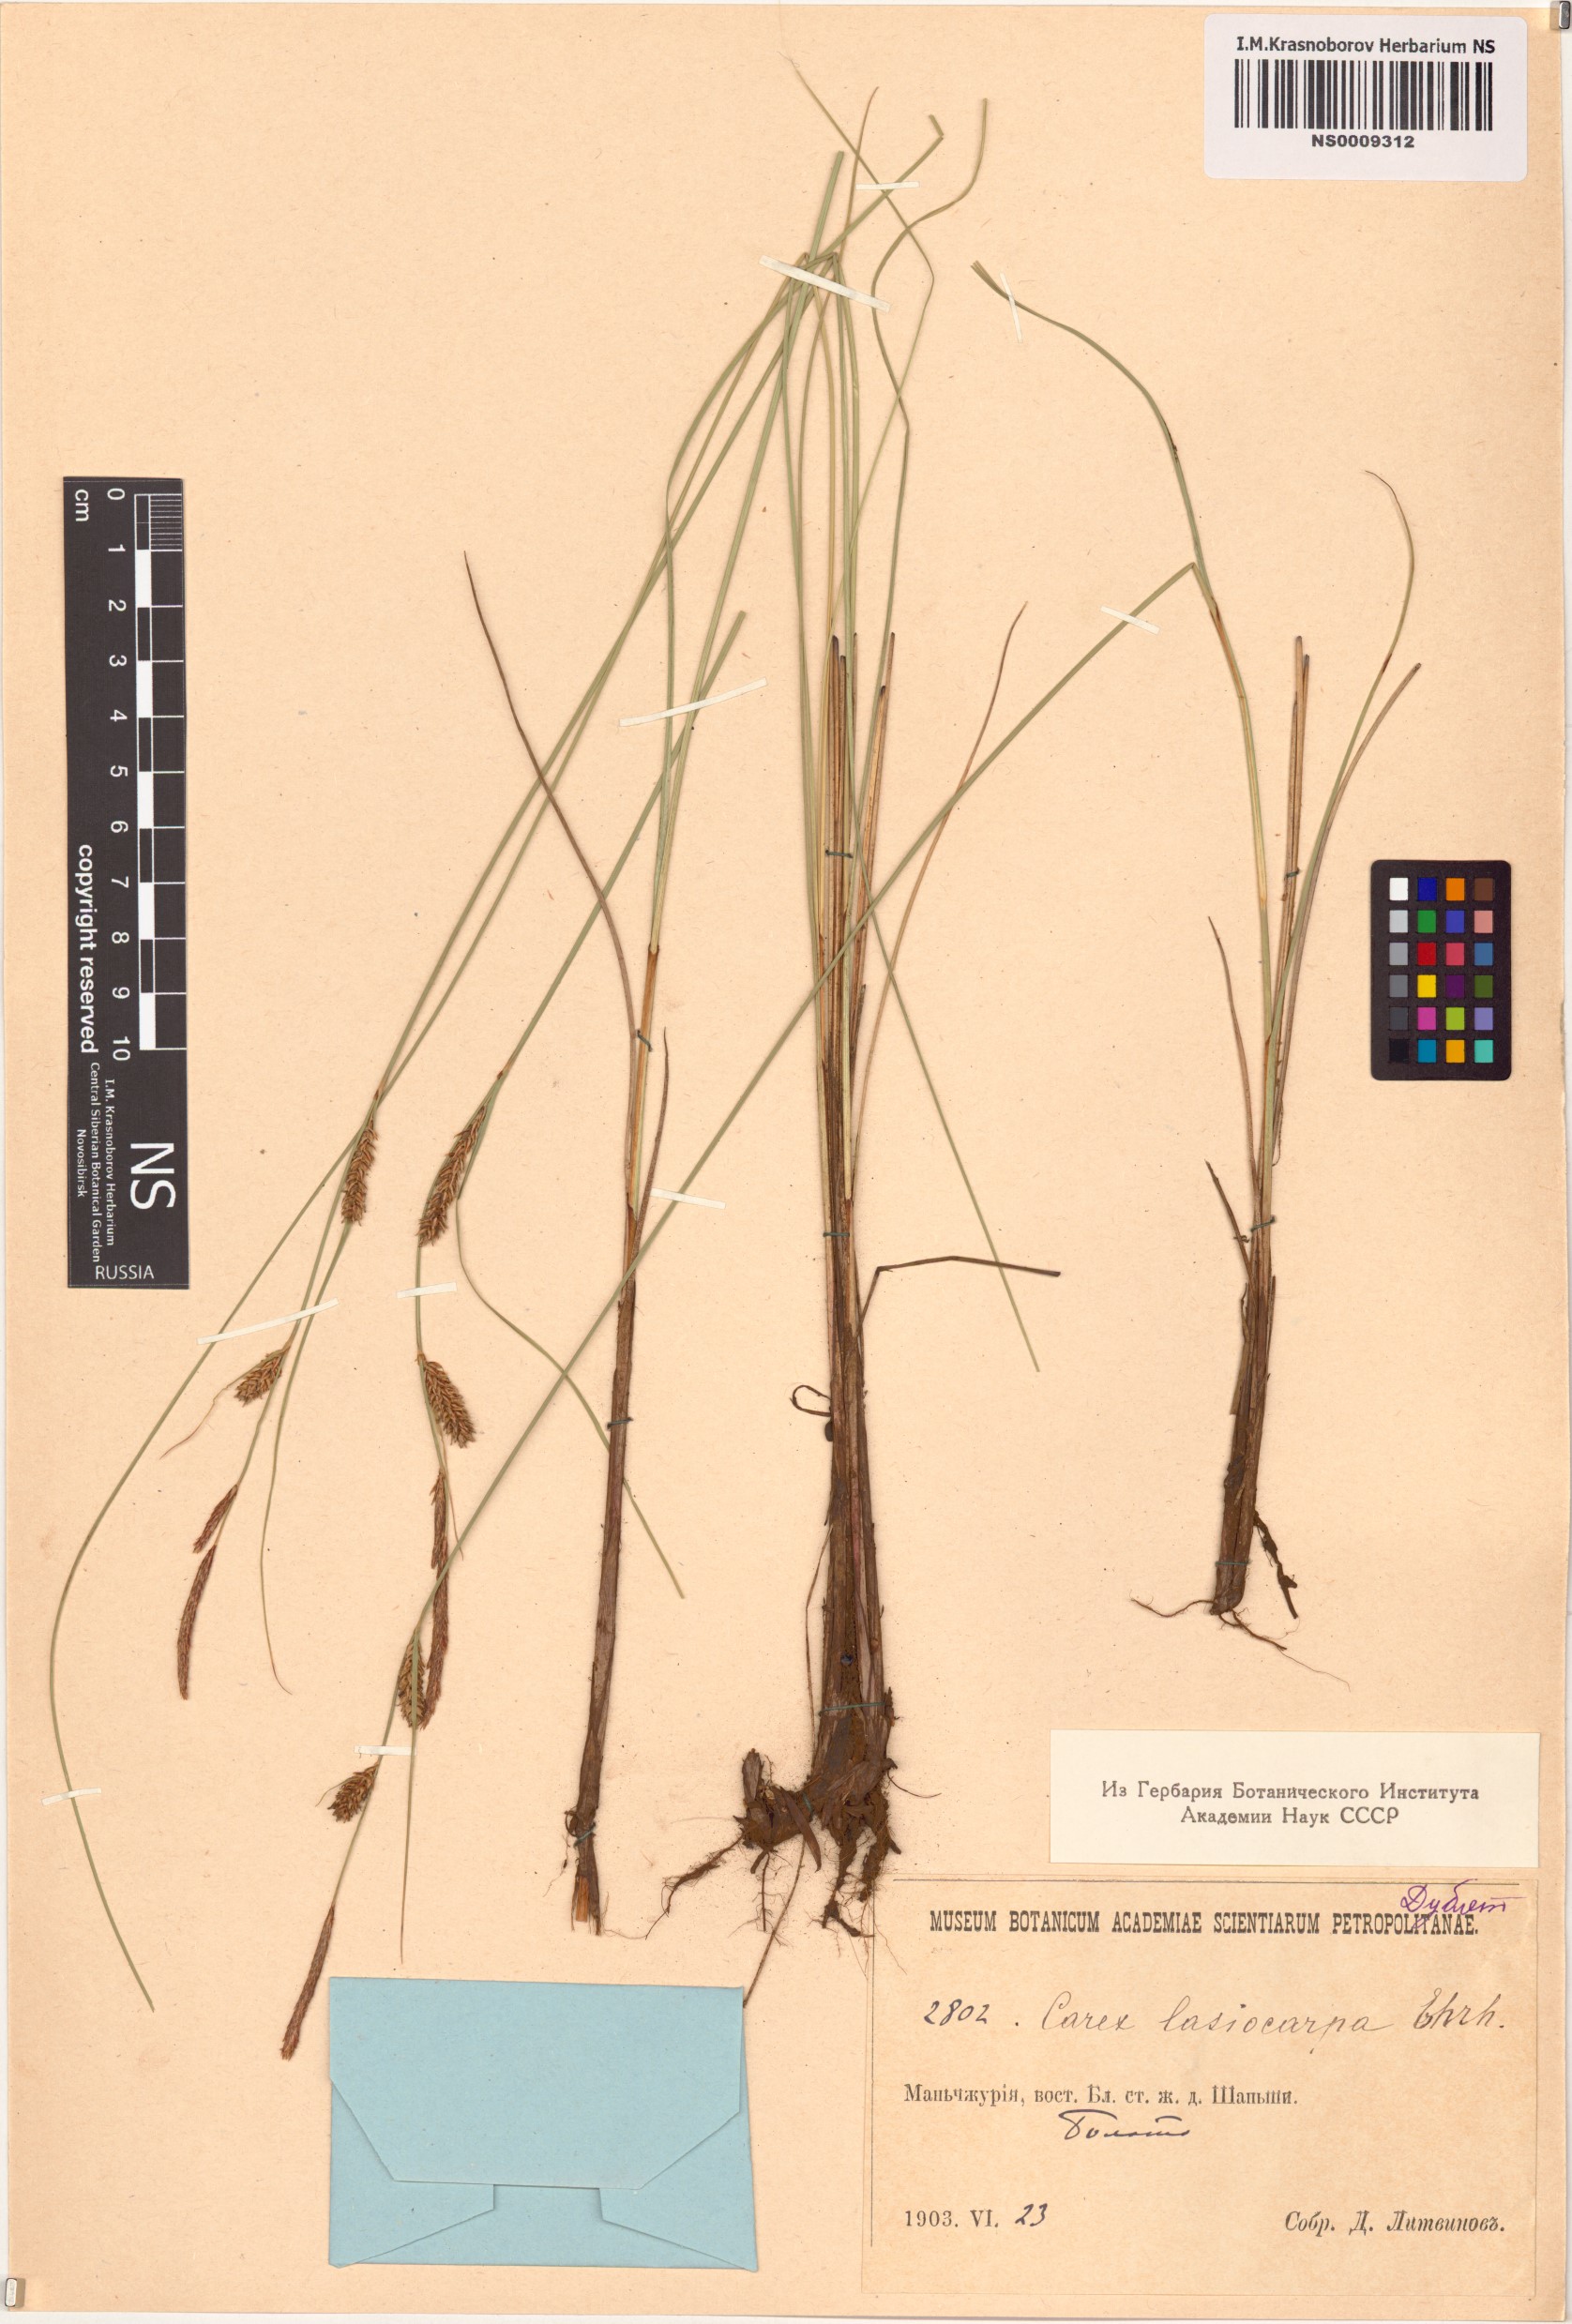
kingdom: Plantae
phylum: Tracheophyta
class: Liliopsida
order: Poales
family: Cyperaceae
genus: Carex
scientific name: Carex lasiocarpa
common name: Slender sedge
